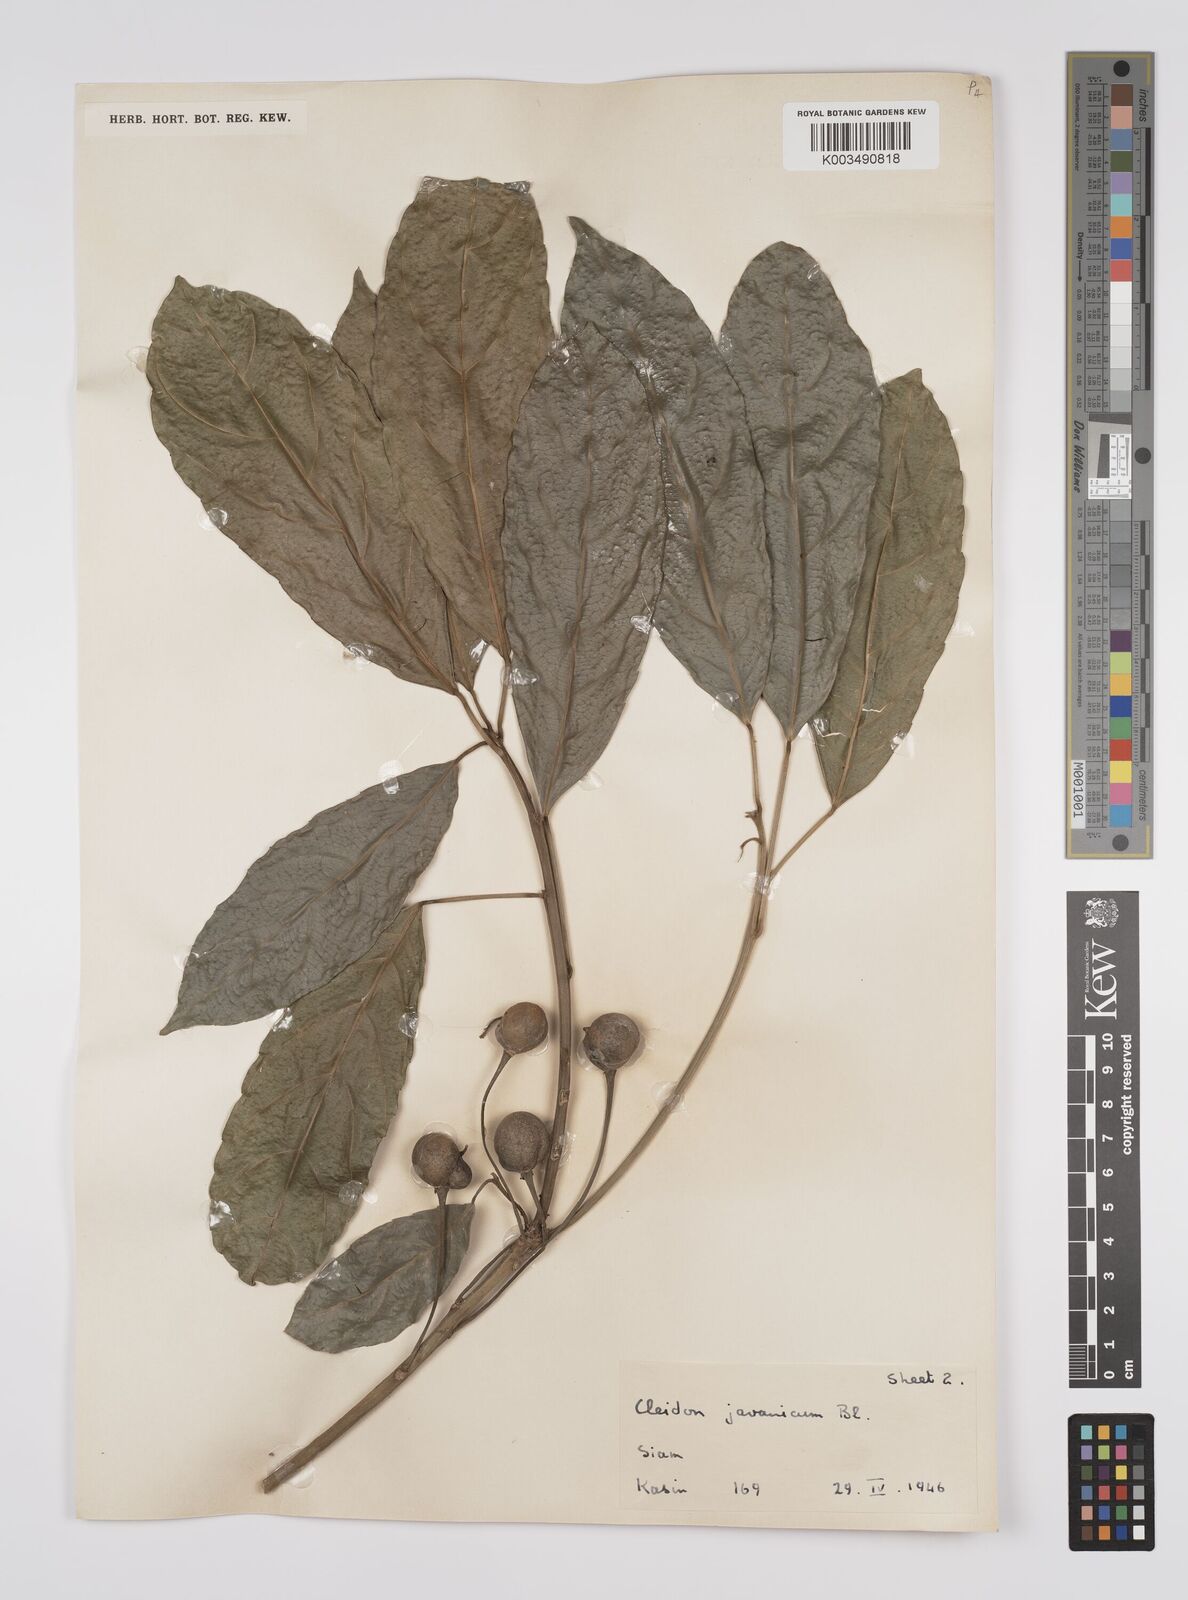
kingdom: Plantae
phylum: Tracheophyta
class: Magnoliopsida
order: Malpighiales
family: Euphorbiaceae
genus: Acalypha
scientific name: Acalypha spiciflora
